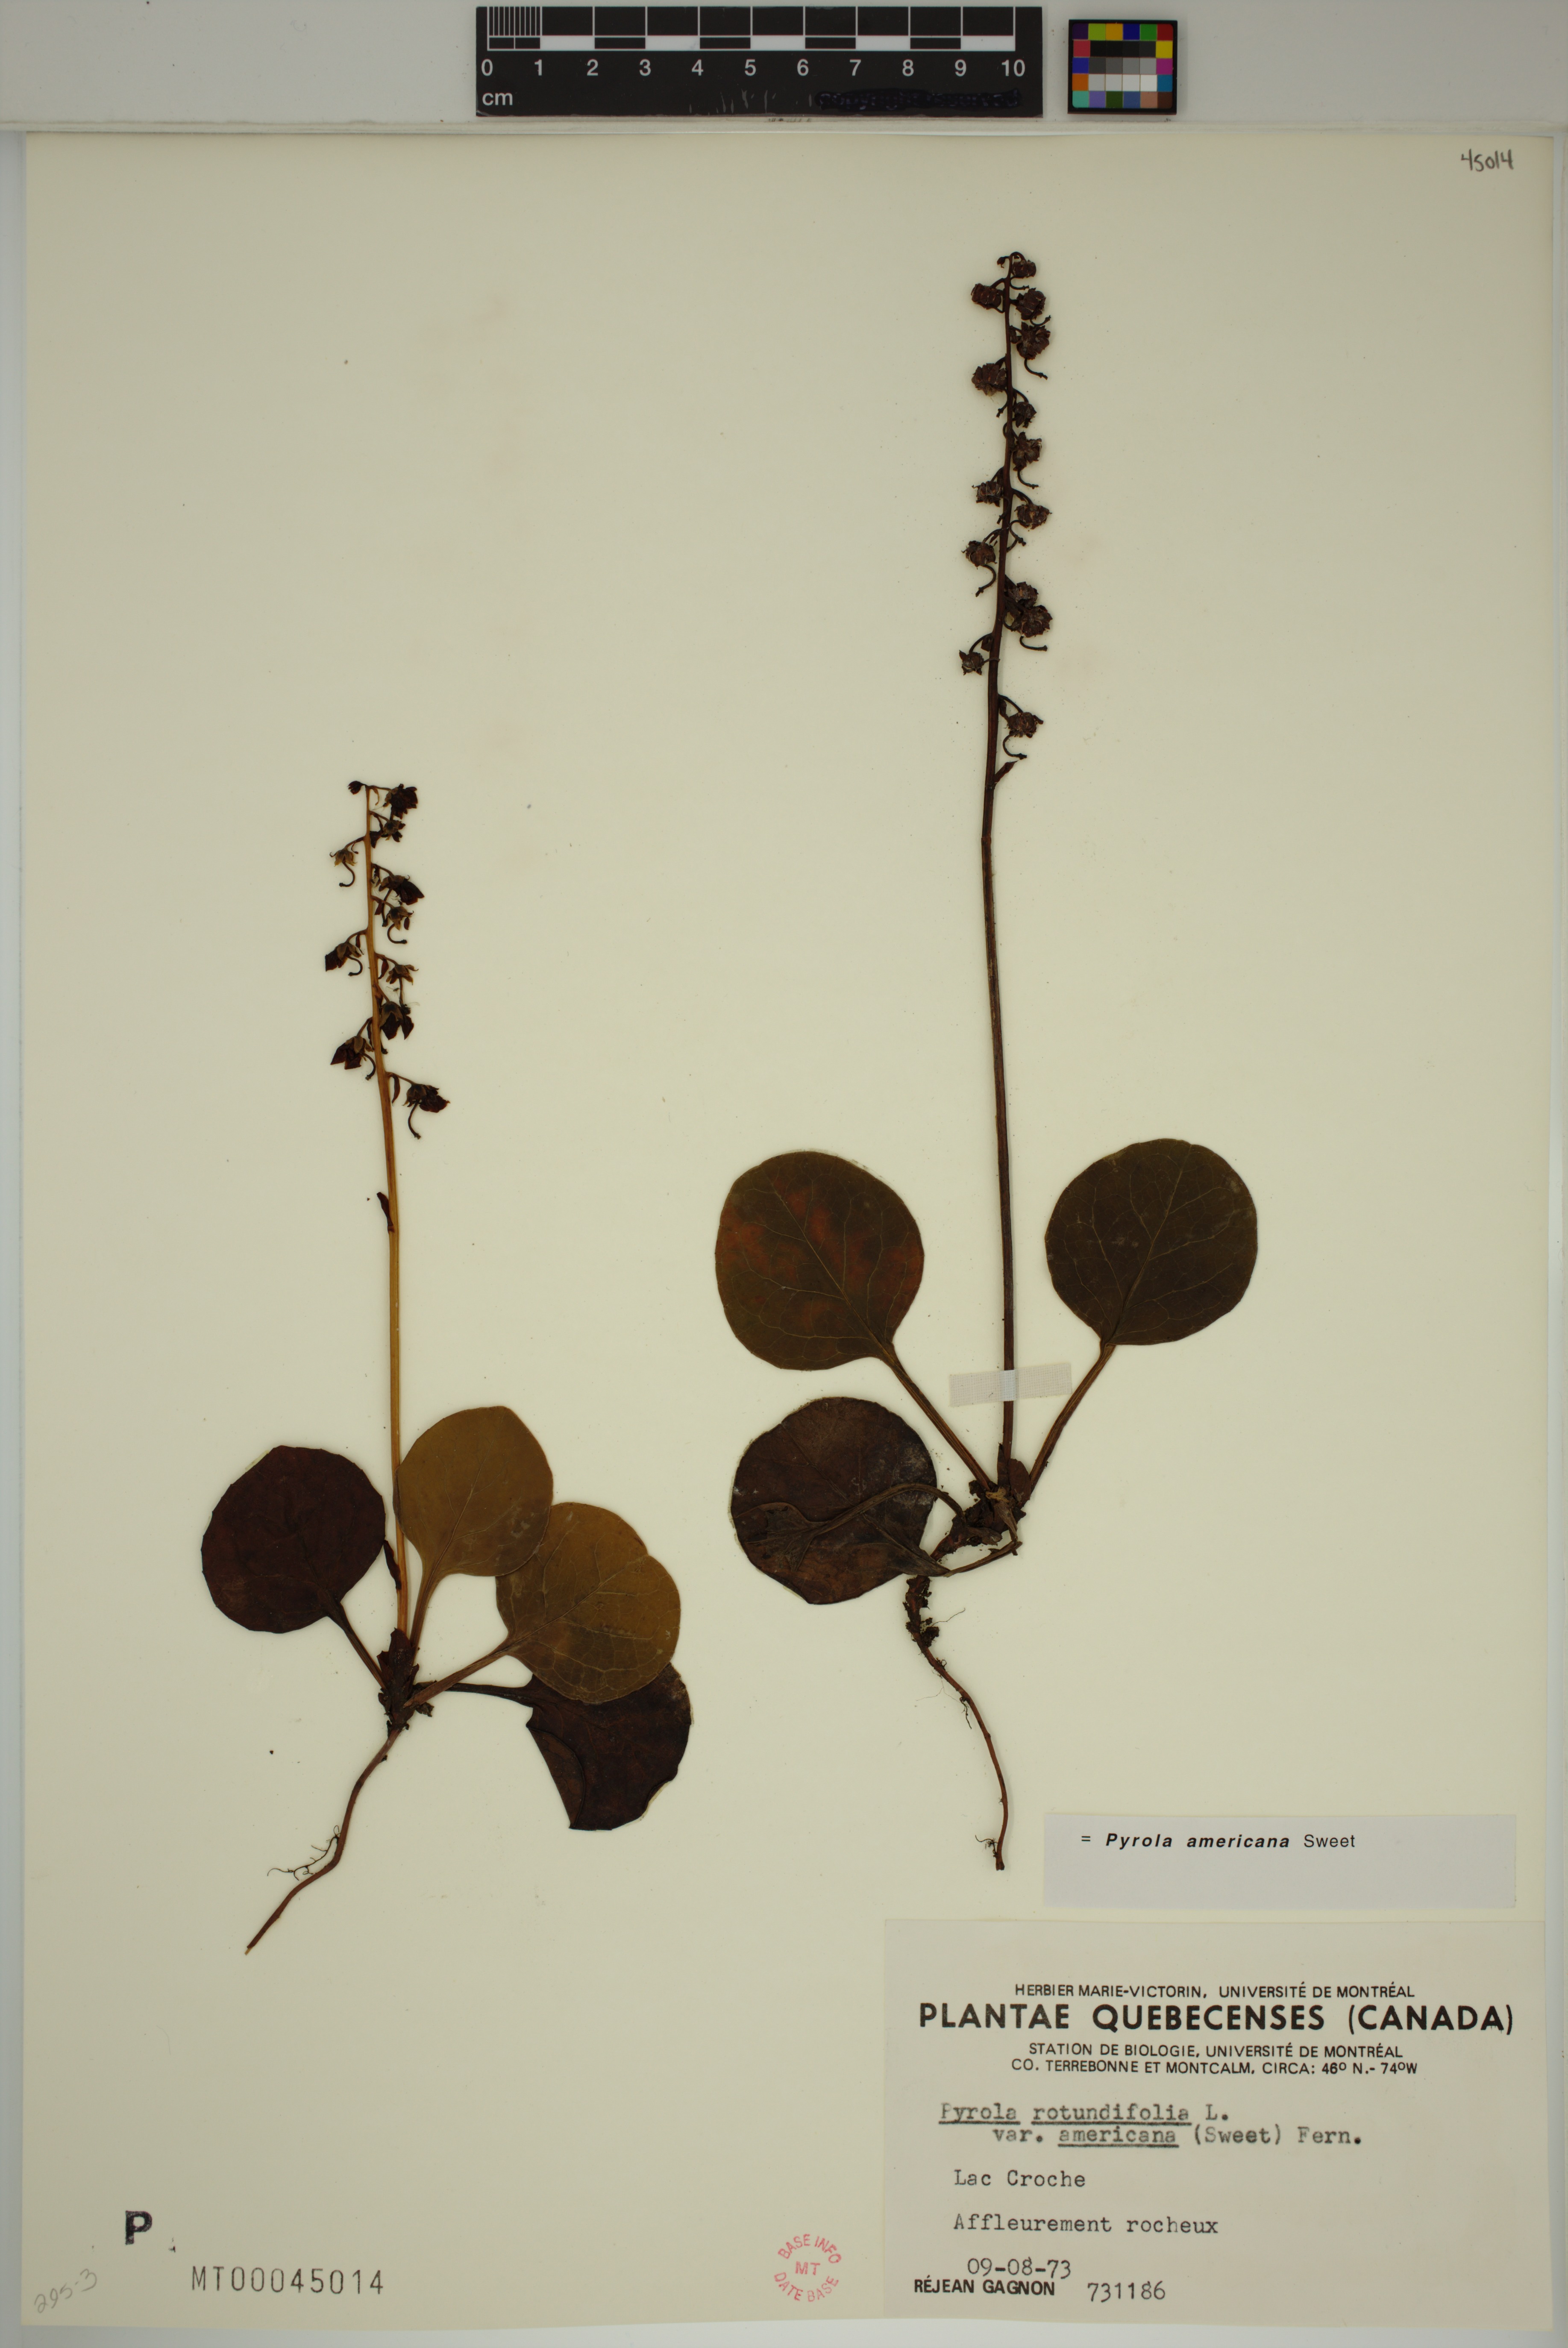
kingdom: Plantae
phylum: Tracheophyta
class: Magnoliopsida
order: Ericales
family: Ericaceae
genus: Pyrola
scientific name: Pyrola americana
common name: American wintergreen
